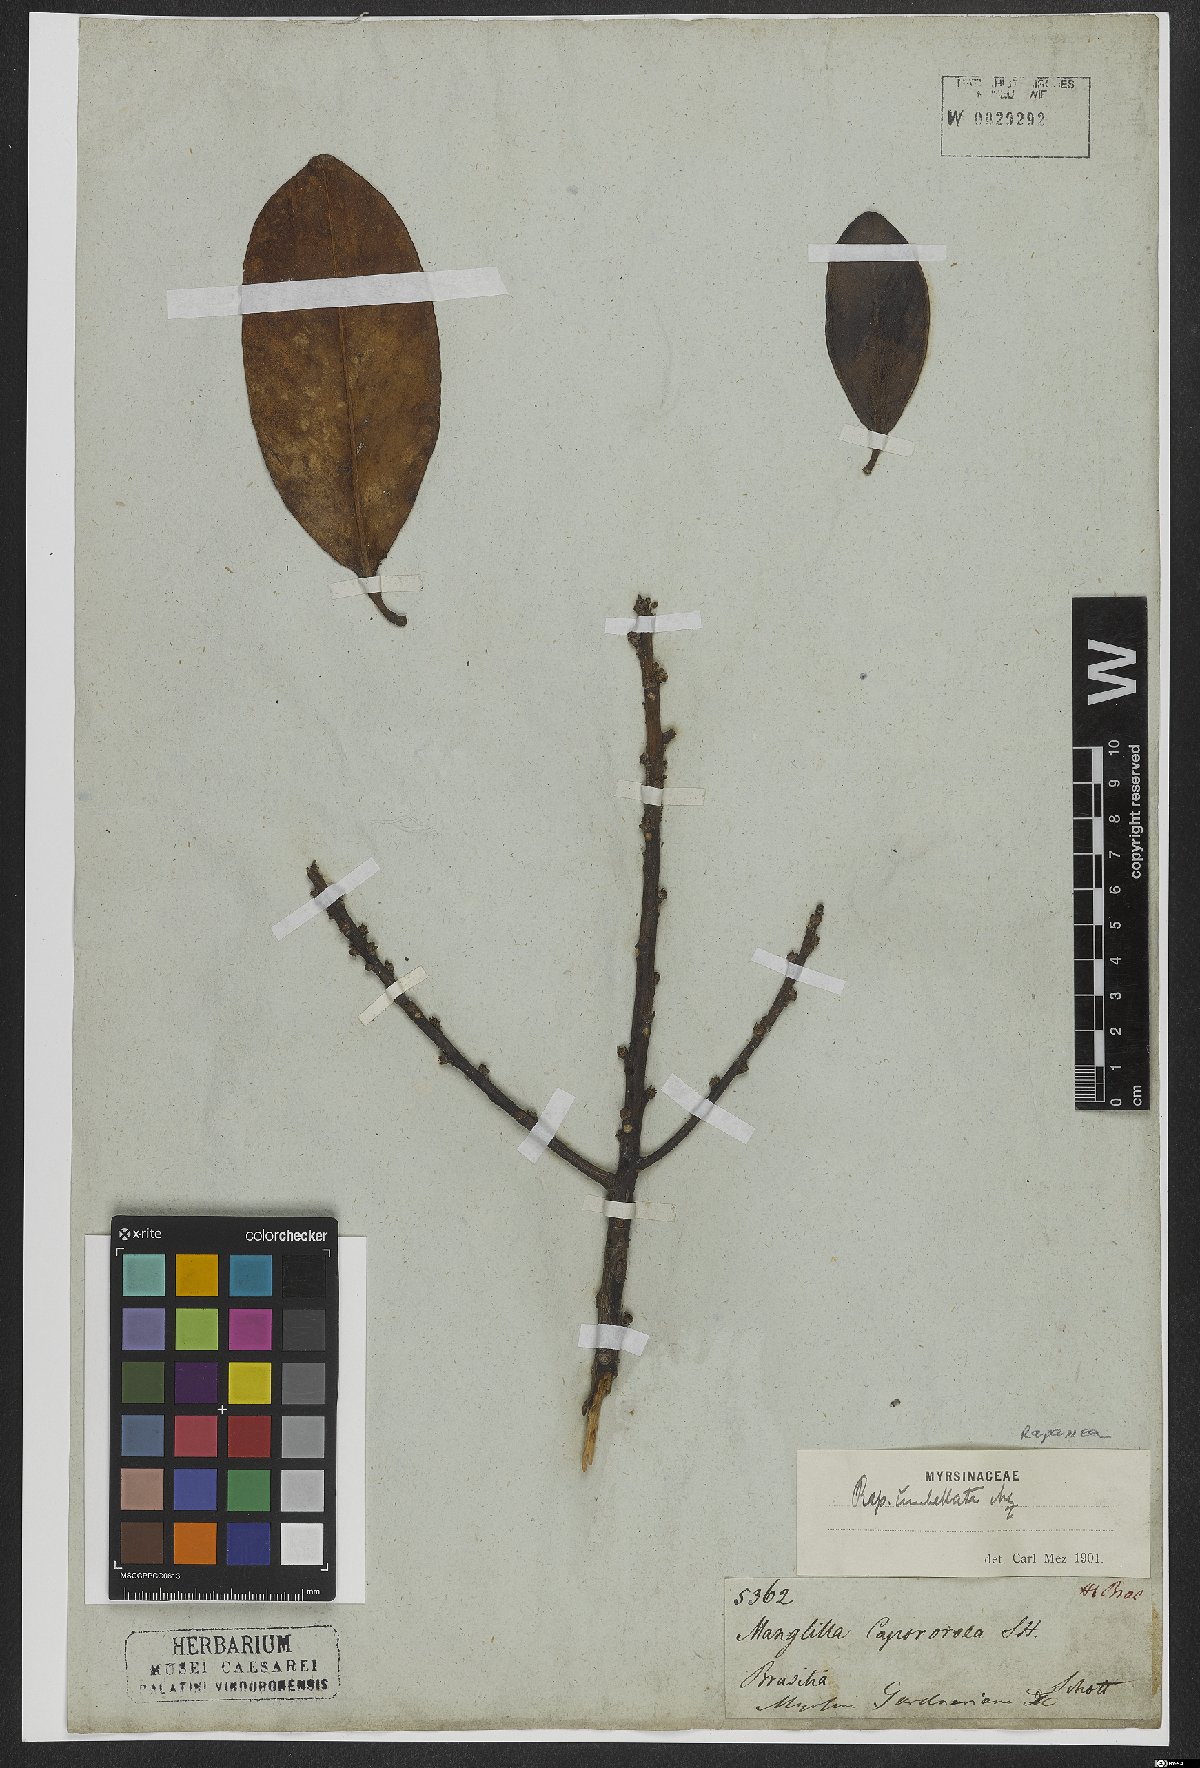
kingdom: Plantae
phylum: Tracheophyta
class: Magnoliopsida
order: Ericales
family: Primulaceae
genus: Myrsine
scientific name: Myrsine umbellata
